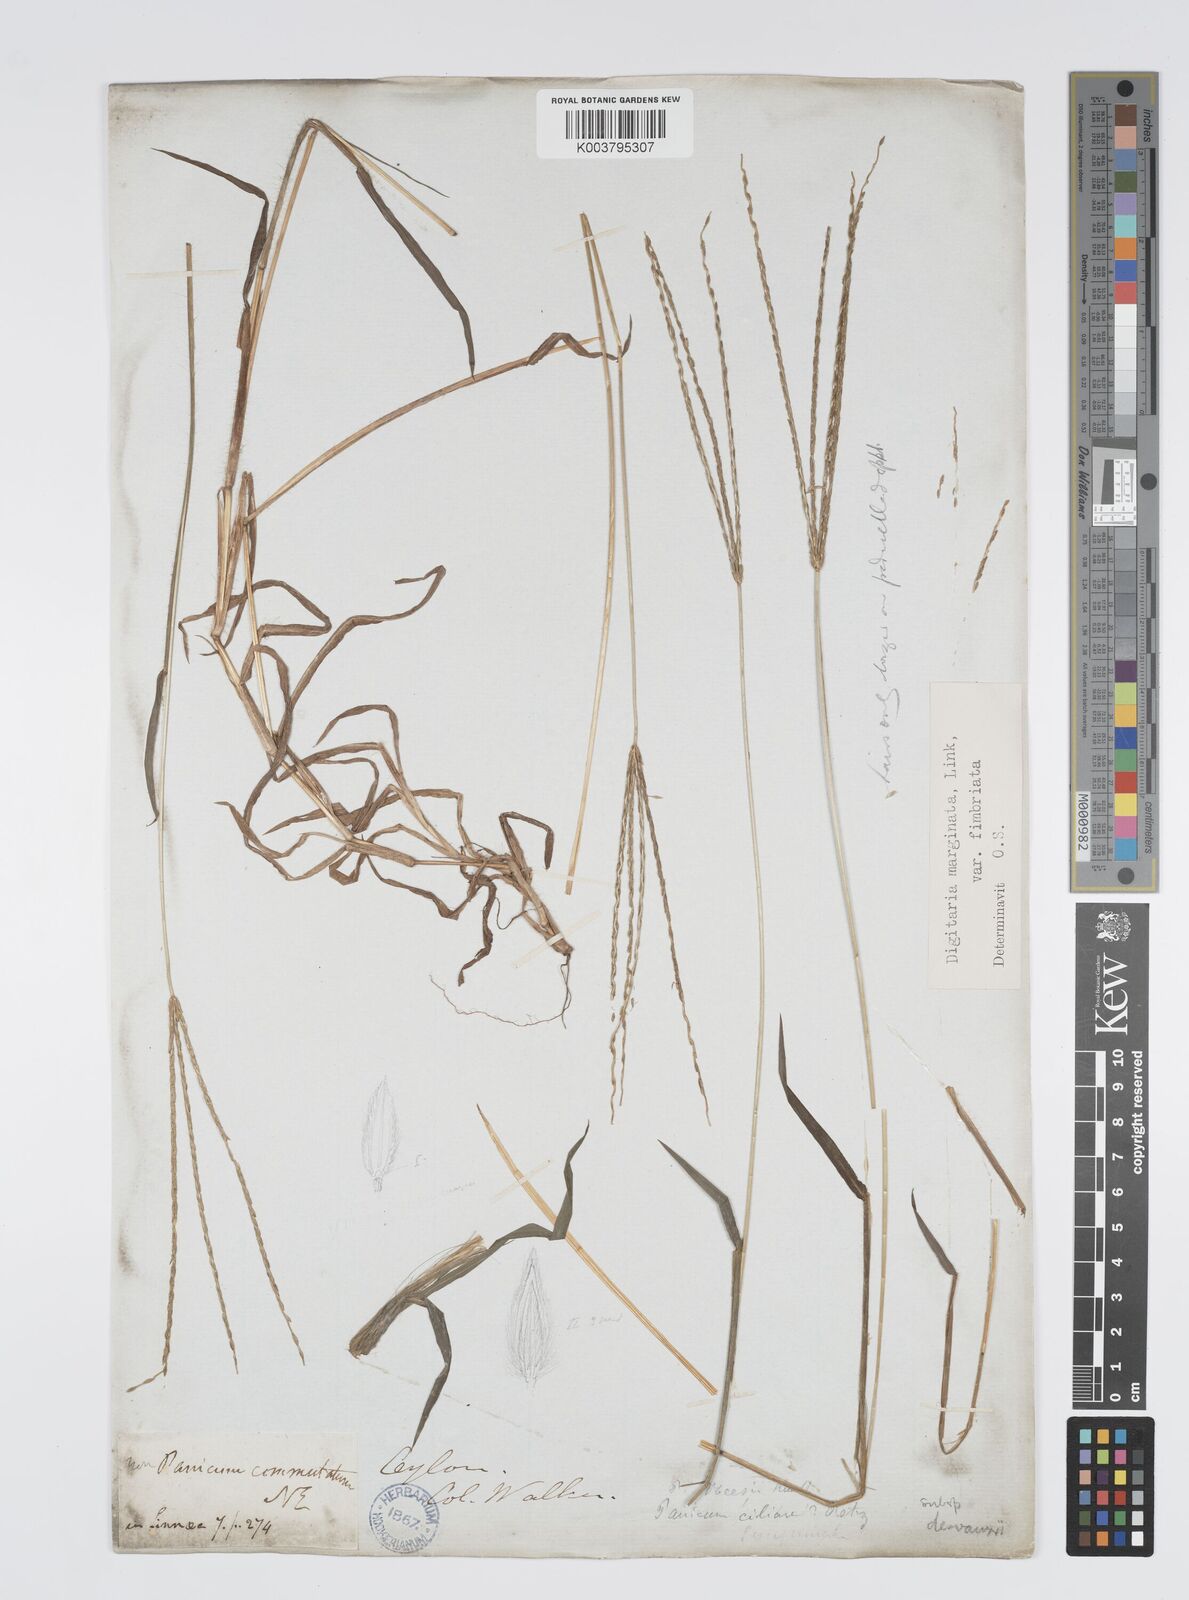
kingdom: Plantae
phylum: Tracheophyta
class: Liliopsida
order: Poales
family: Poaceae
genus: Digitaria
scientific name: Digitaria ciliaris
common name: Tropical finger-grass
